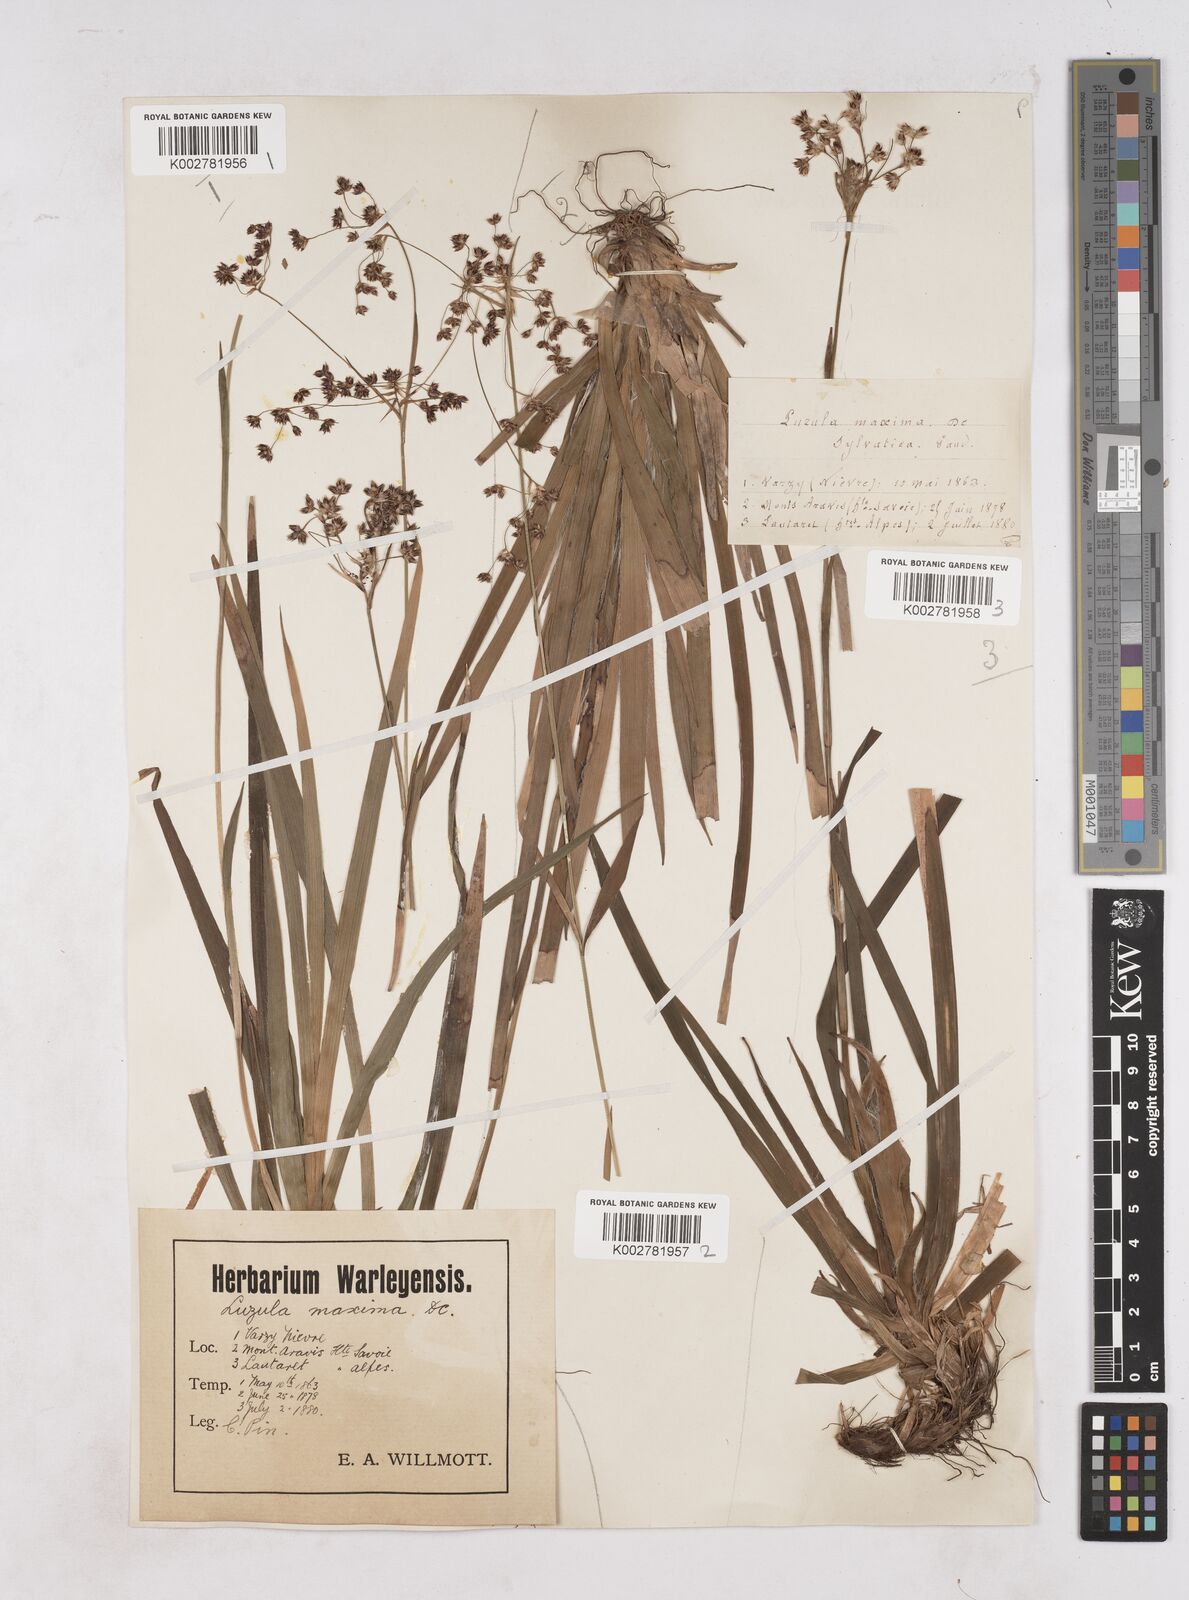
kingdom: Plantae
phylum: Tracheophyta
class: Liliopsida
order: Poales
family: Juncaceae
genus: Luzula
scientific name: Luzula sylvatica
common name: Great wood-rush
